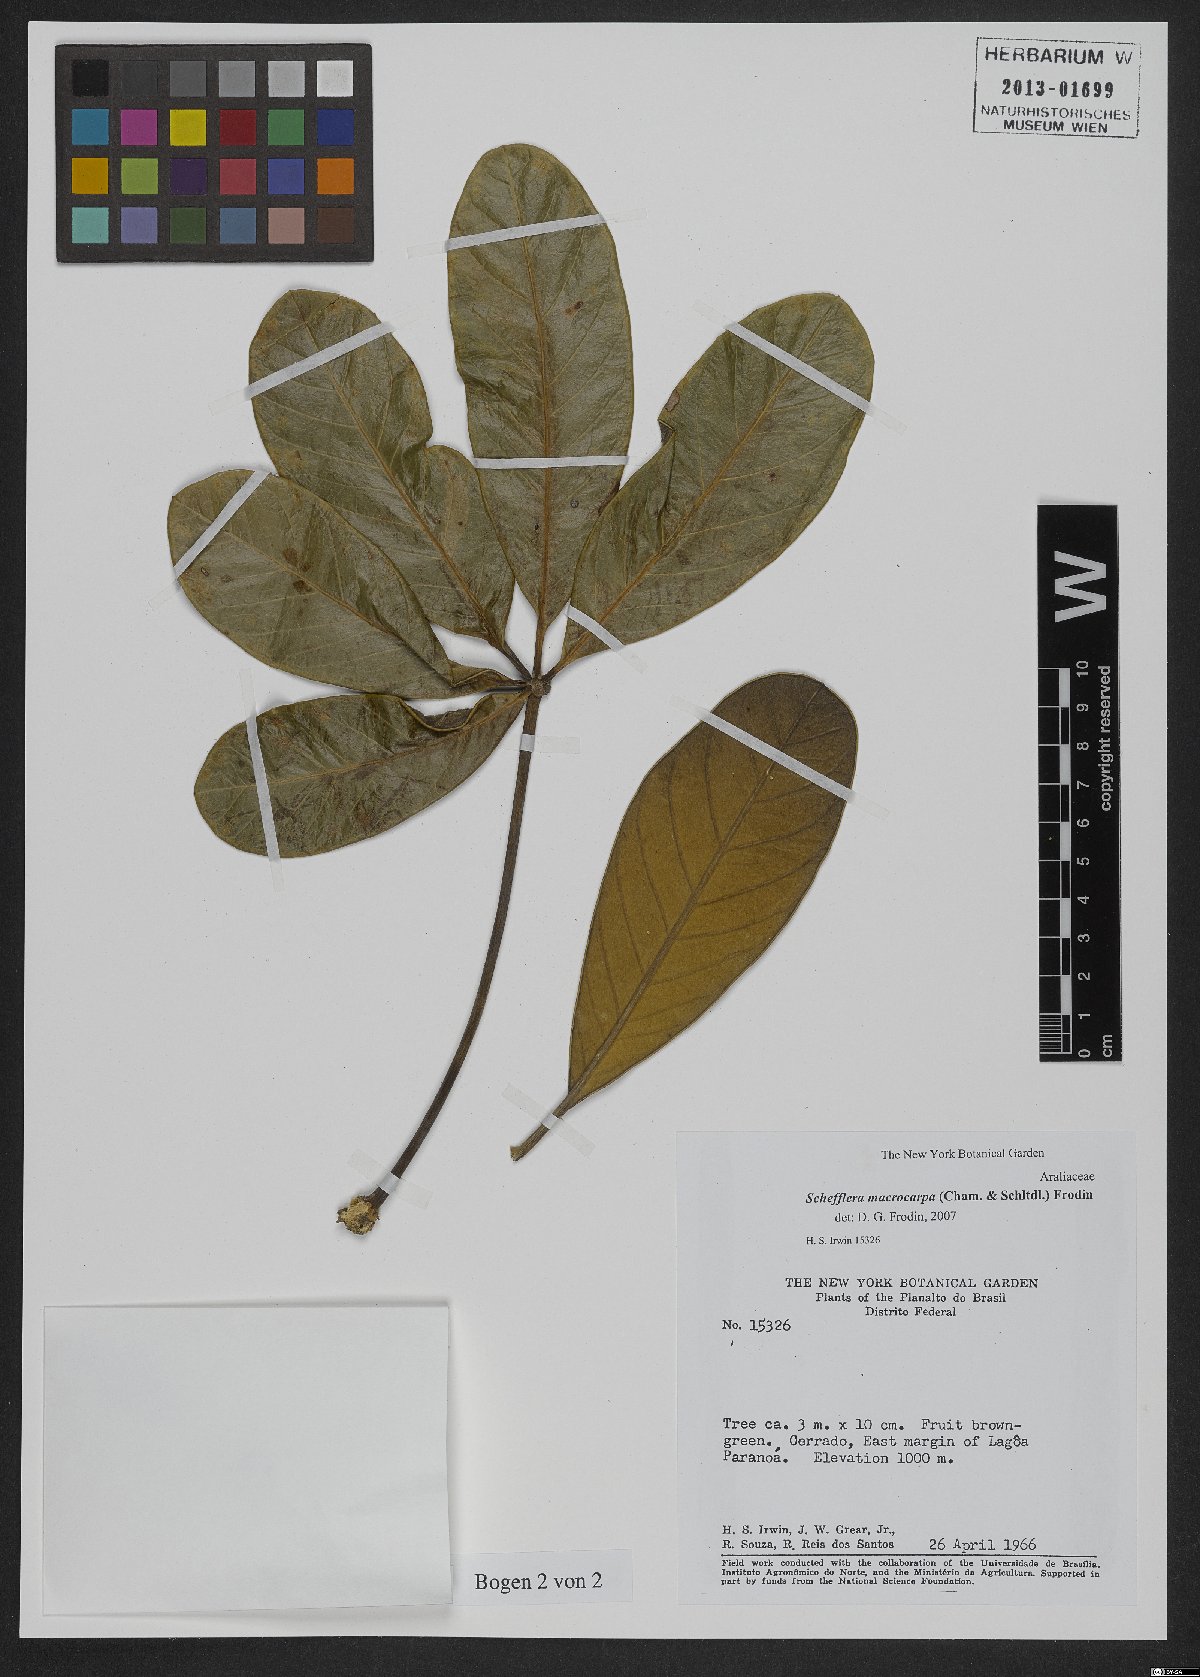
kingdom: Plantae
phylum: Tracheophyta
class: Magnoliopsida
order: Apiales
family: Araliaceae
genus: Didymopanax
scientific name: Didymopanax macrocarpus
